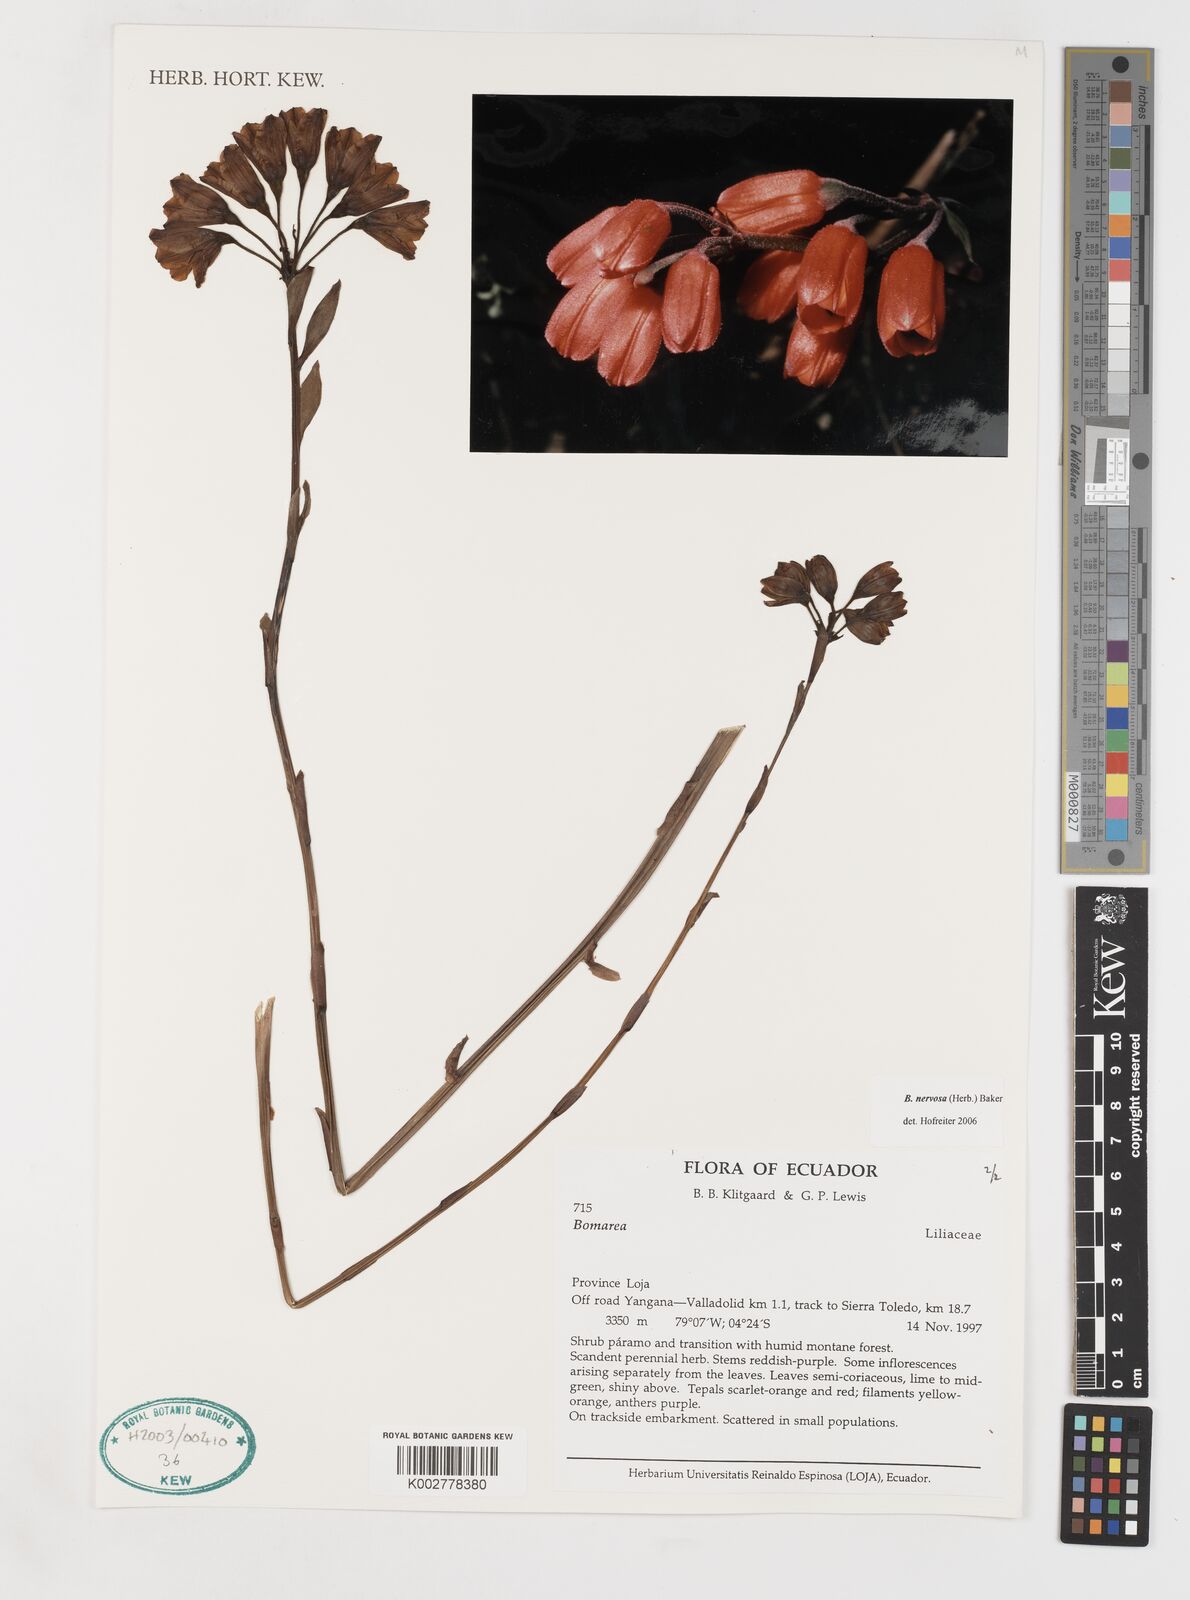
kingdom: Plantae
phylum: Tracheophyta
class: Liliopsida
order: Liliales
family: Alstroemeriaceae
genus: Bomarea
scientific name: Bomarea nervosa
